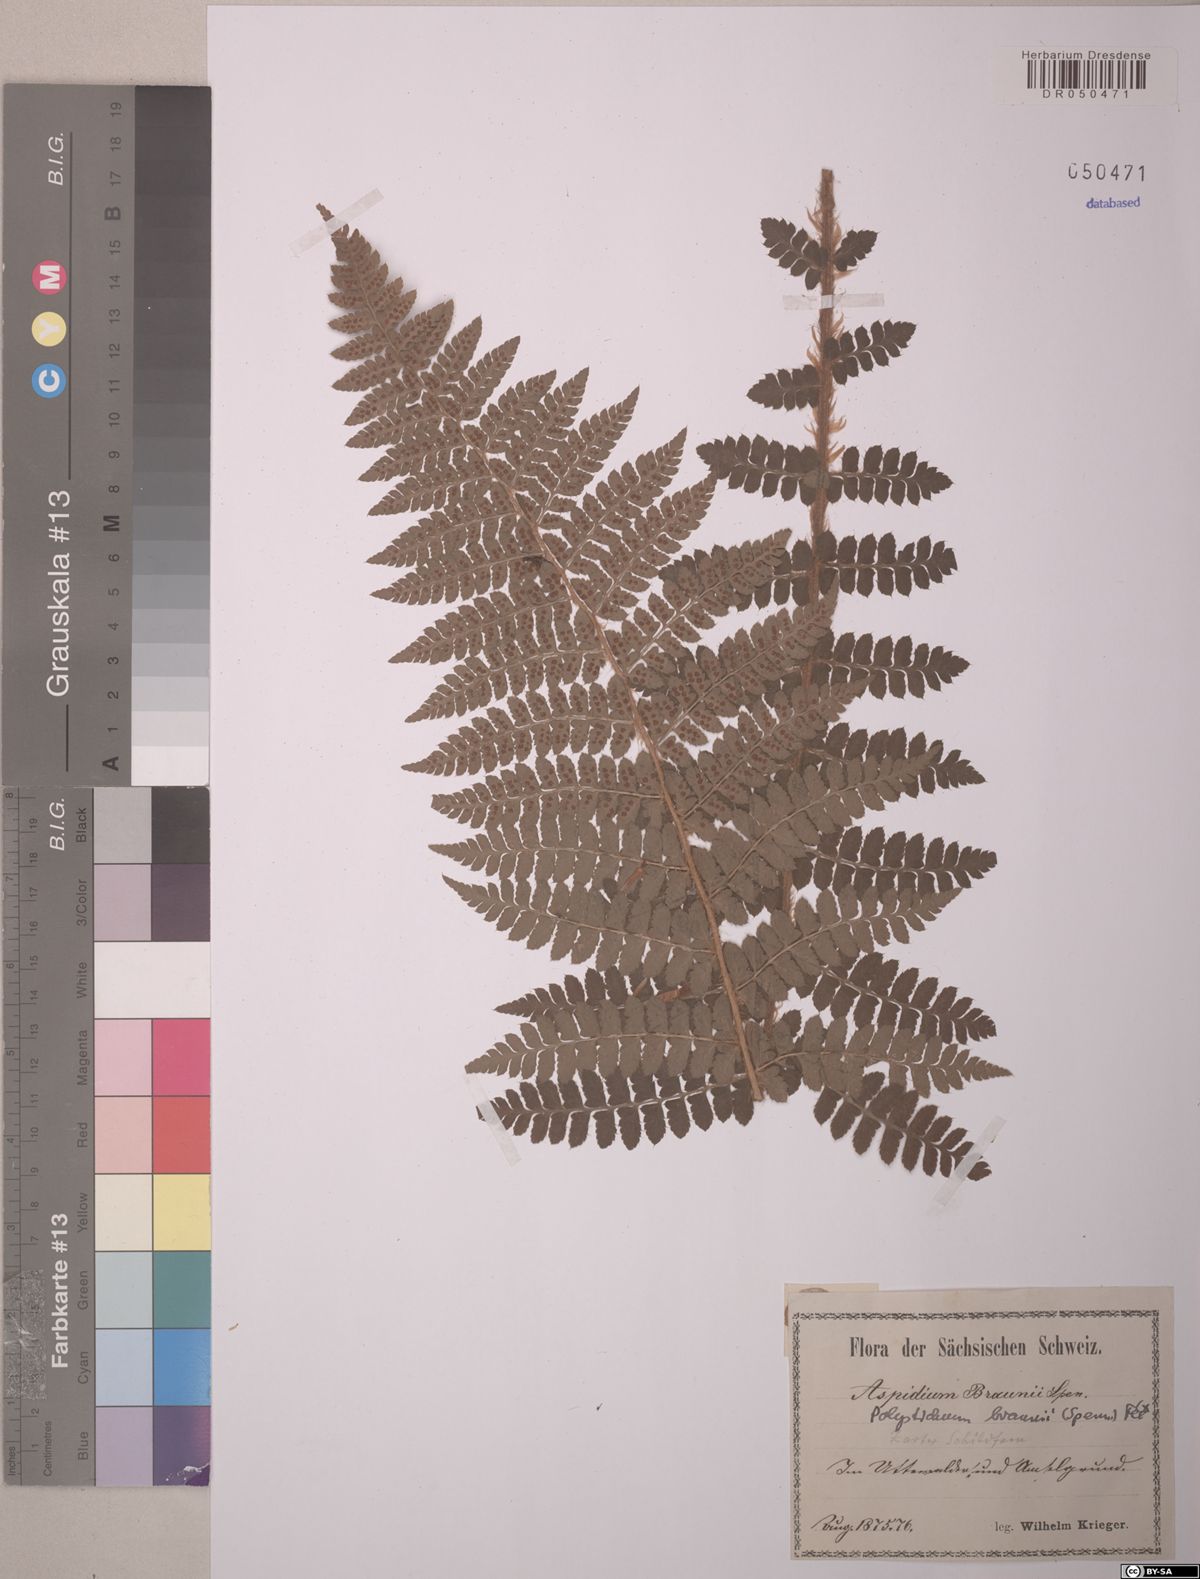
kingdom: Plantae
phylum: Tracheophyta
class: Polypodiopsida
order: Polypodiales
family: Dryopteridaceae
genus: Polystichum
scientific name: Polystichum braunii
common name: Braun's holly fern
